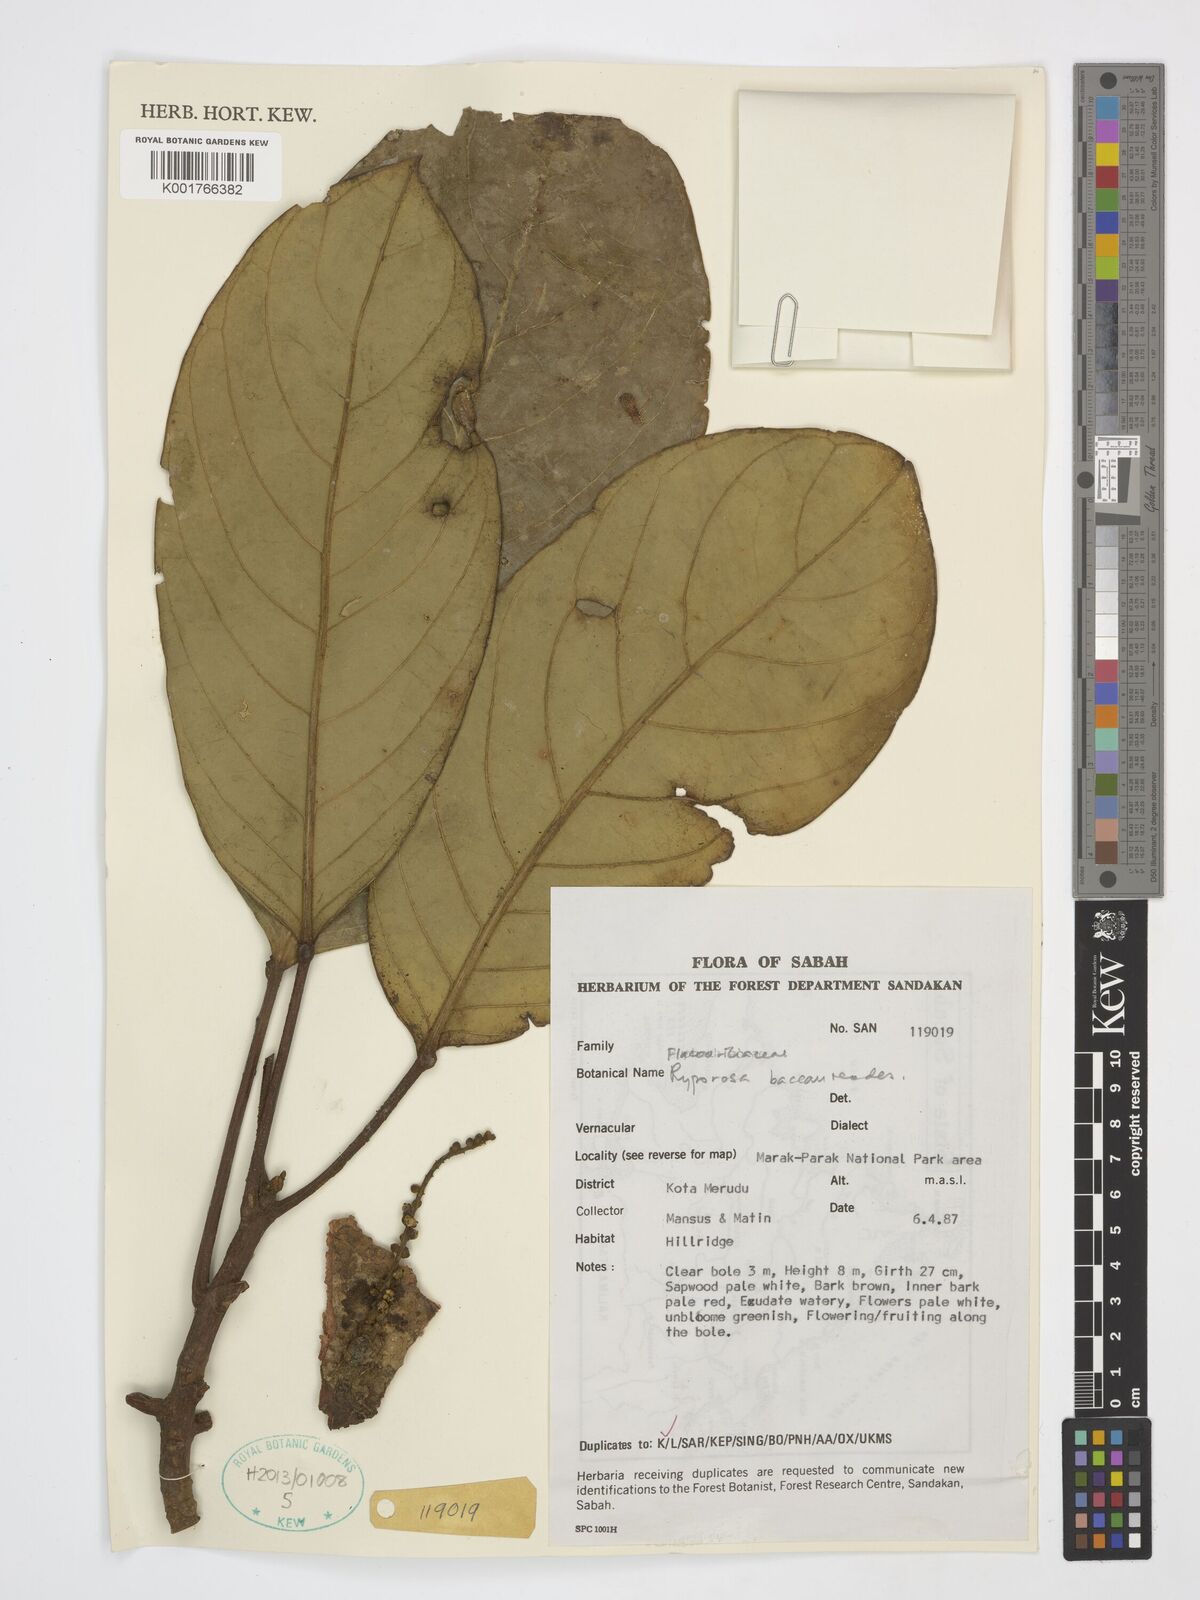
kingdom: Plantae
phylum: Tracheophyta
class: Magnoliopsida
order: Malpighiales
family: Achariaceae
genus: Ryparosa
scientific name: Ryparosa baccaureoides
